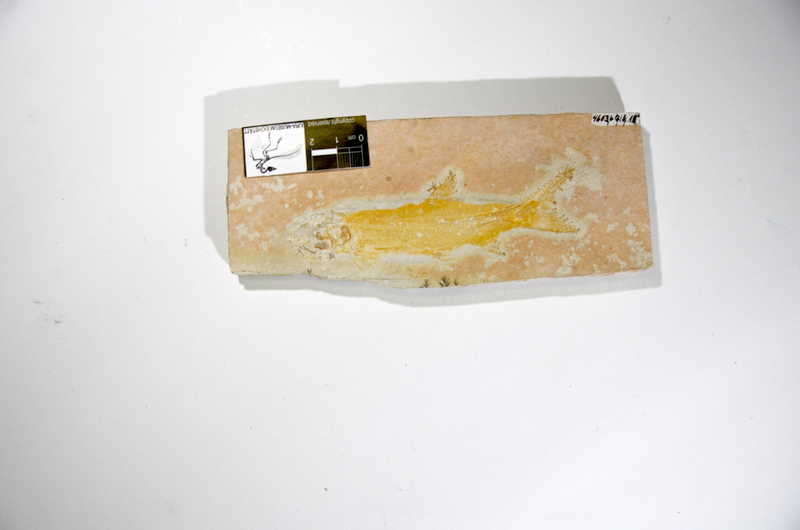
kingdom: Animalia
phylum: Chordata
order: Amiiformes
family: Caturidae
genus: Amblysemius
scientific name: Amblysemius bellicianus
